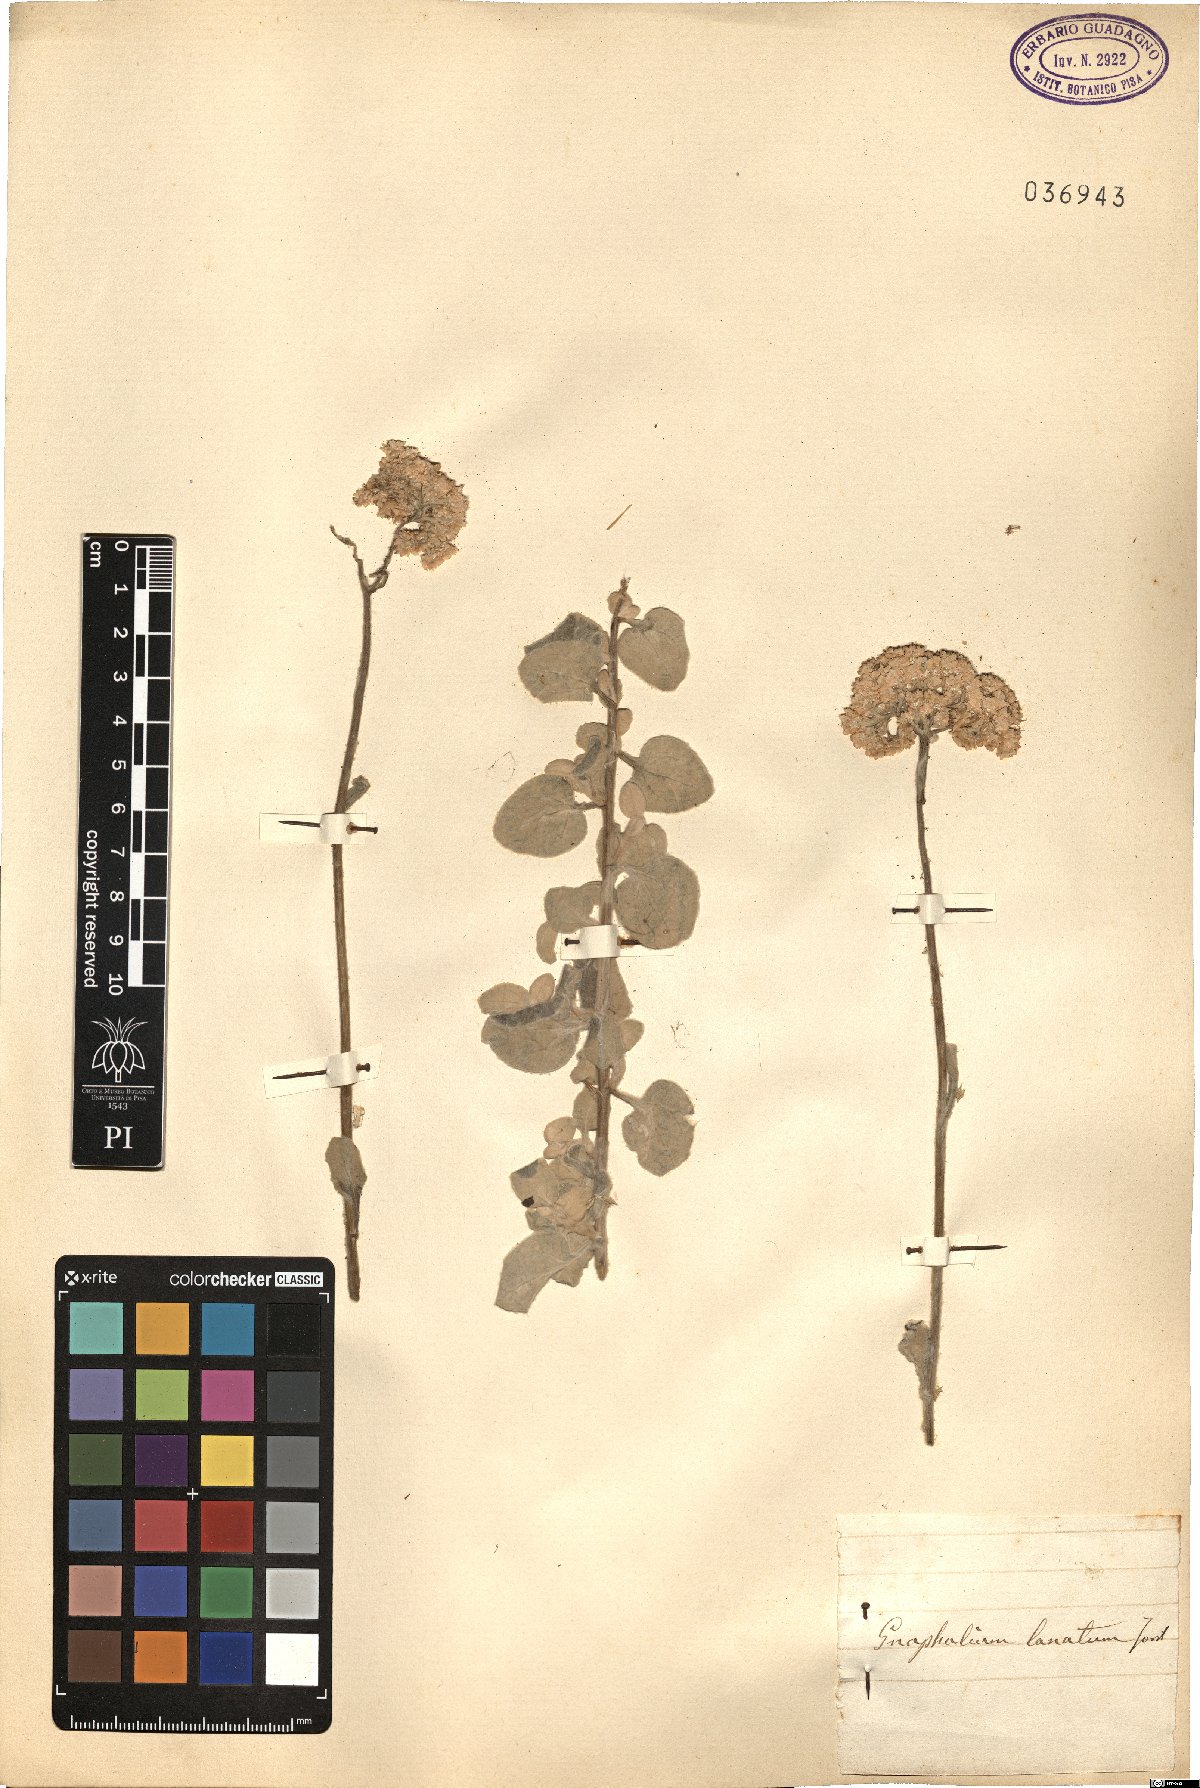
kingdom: Plantae
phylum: Tracheophyta
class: Magnoliopsida
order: Asterales
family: Asteraceae
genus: Euchiton
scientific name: Euchiton involucratus
